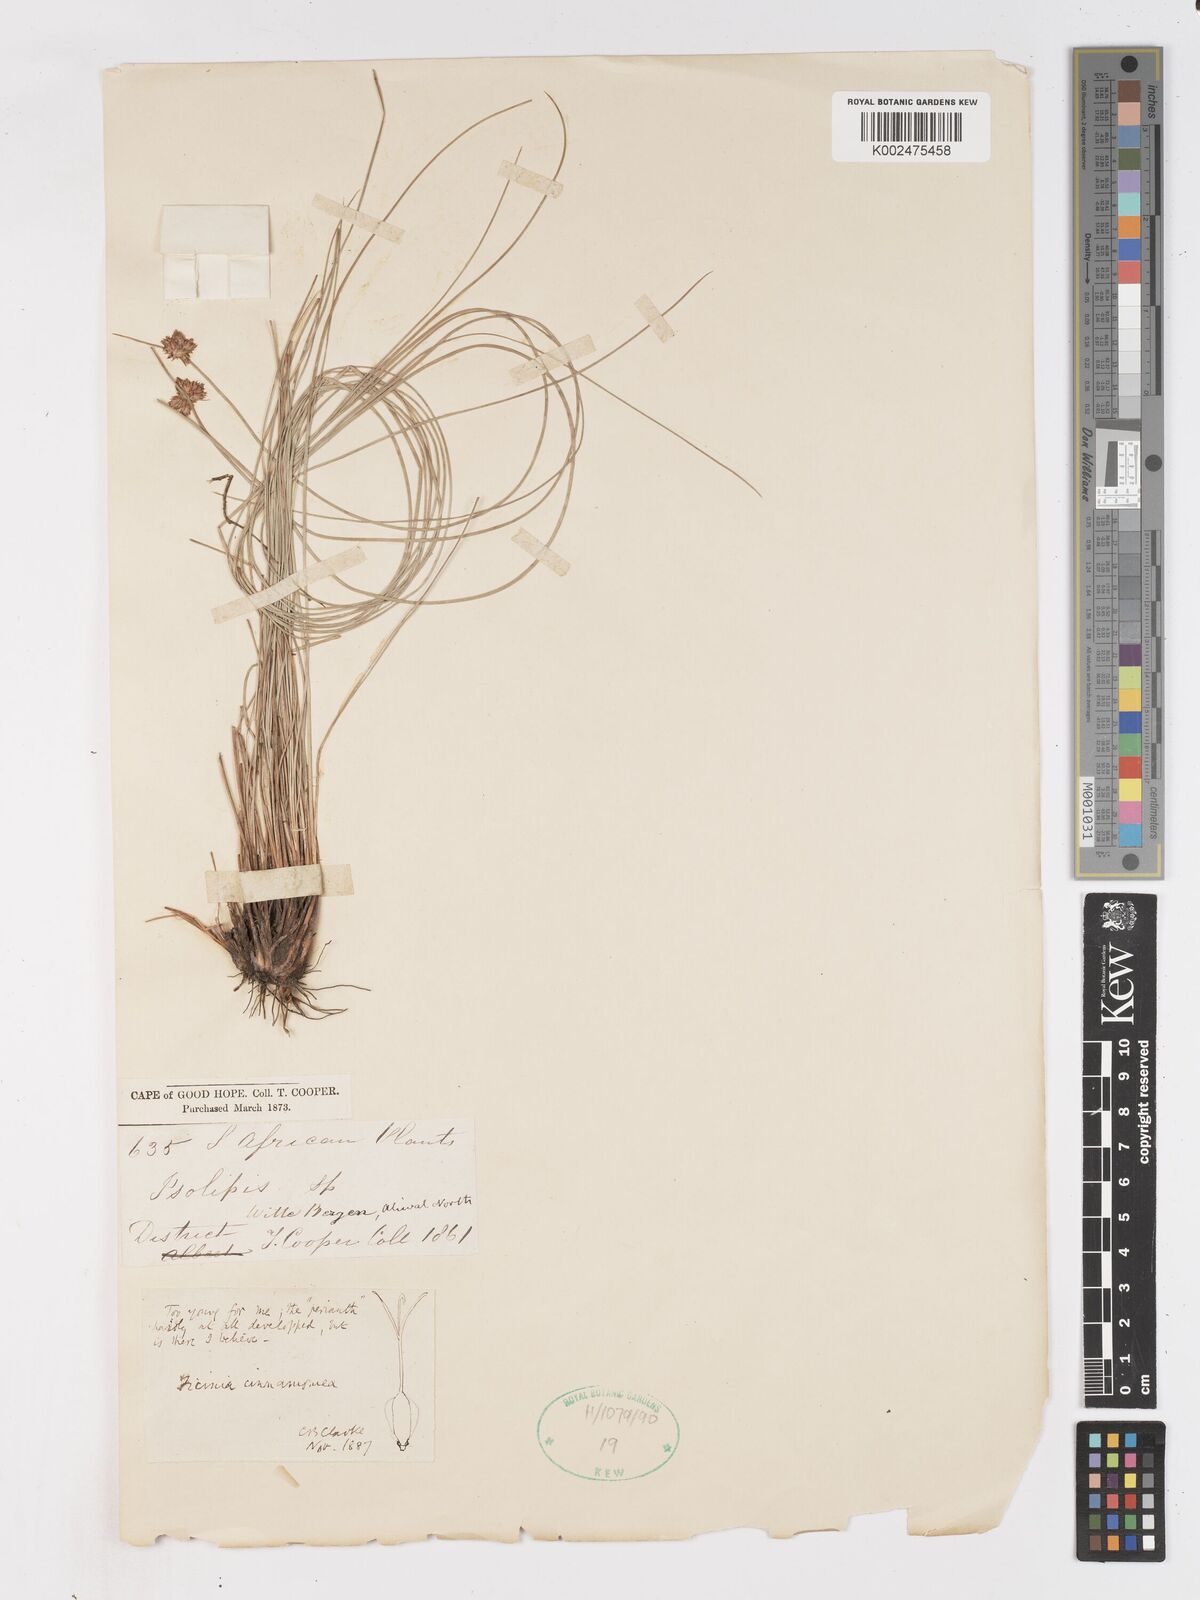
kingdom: Plantae
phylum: Tracheophyta
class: Liliopsida
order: Poales
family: Cyperaceae
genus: Ficinia
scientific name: Ficinia cinnamomea
